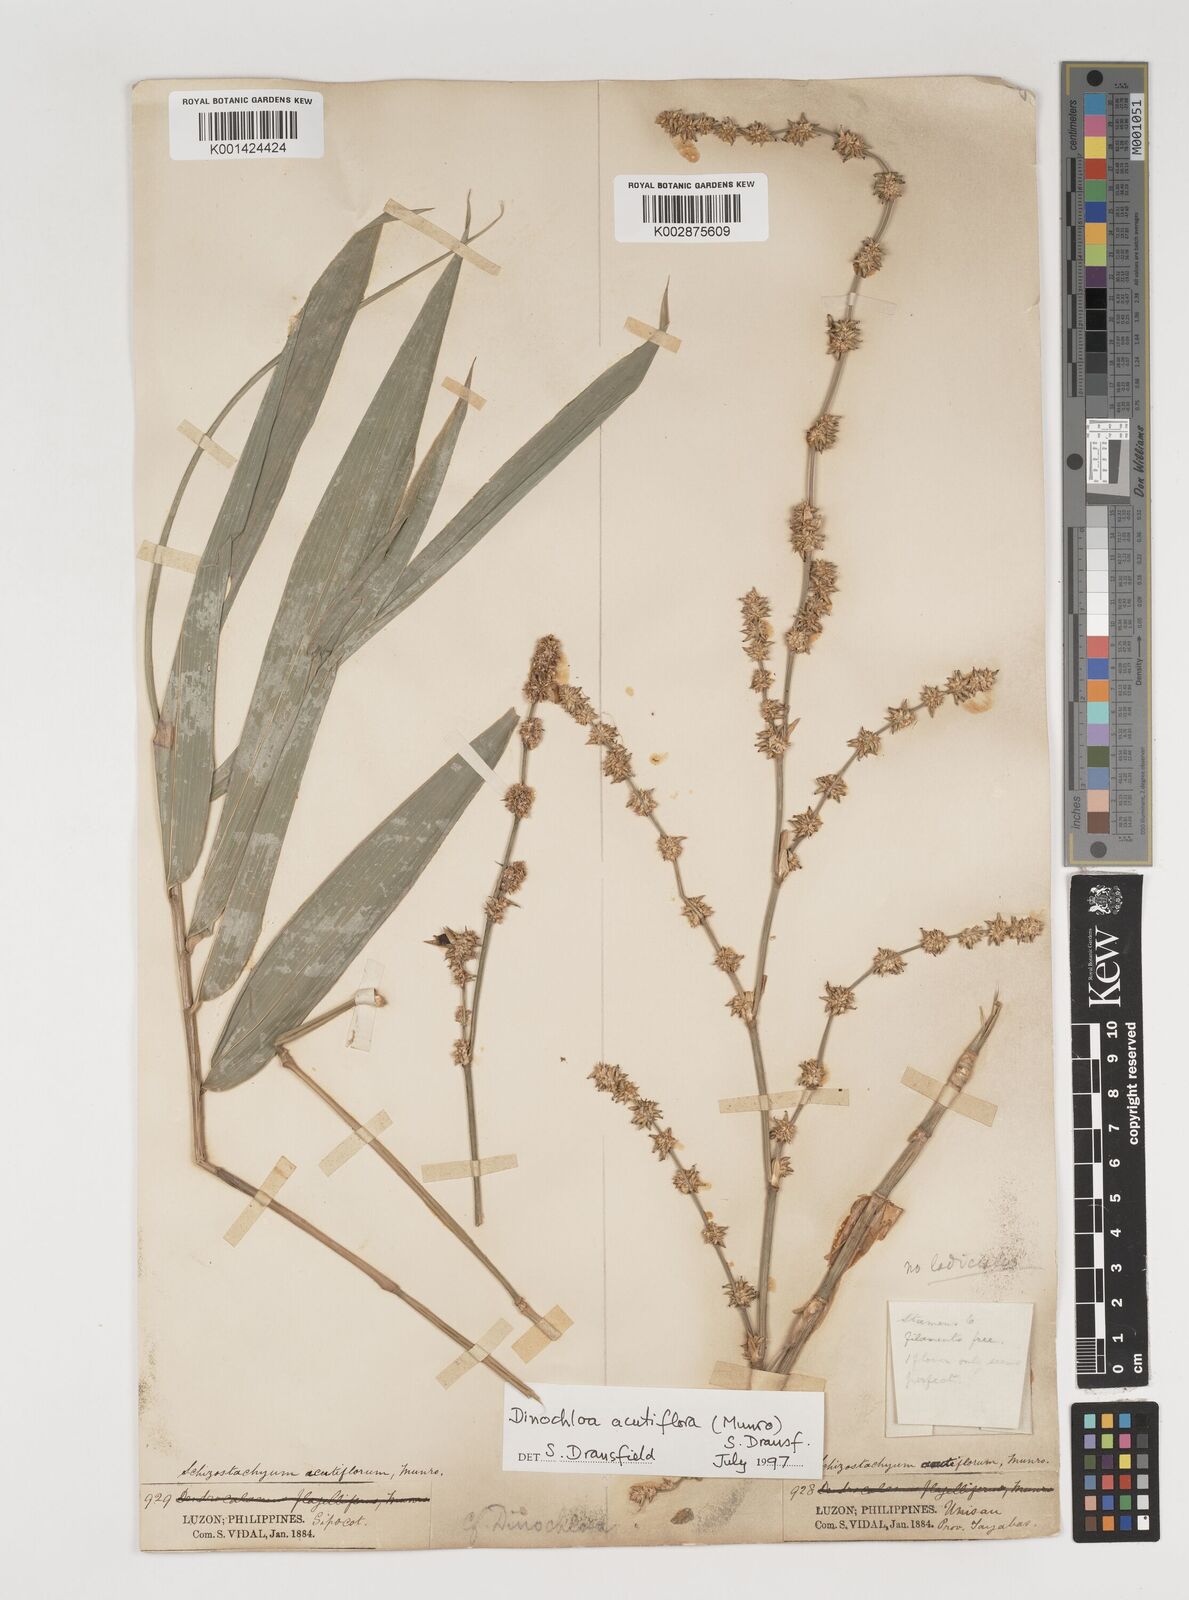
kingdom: Plantae
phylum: Tracheophyta
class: Liliopsida
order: Poales
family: Poaceae
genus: Dinochloa
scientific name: Dinochloa acutiflora
